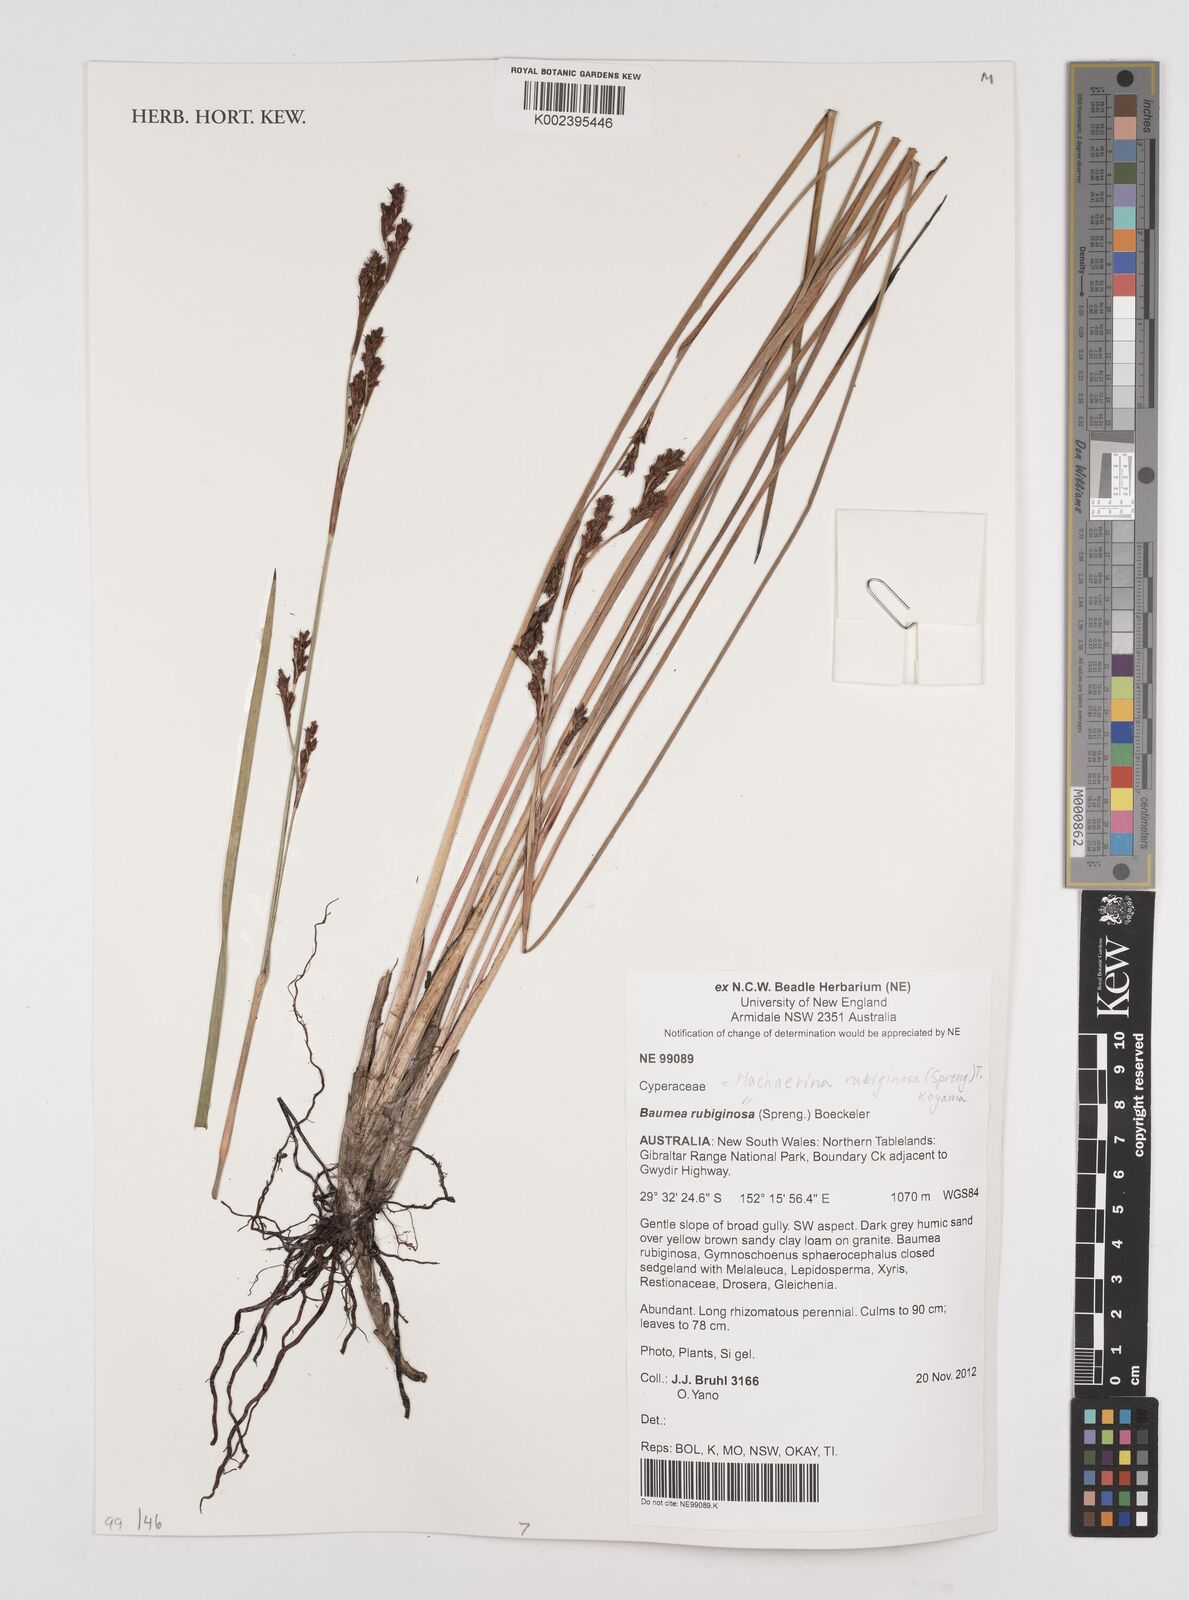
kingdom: Plantae
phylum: Tracheophyta
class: Liliopsida
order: Poales
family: Cyperaceae
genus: Machaerina
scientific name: Machaerina
